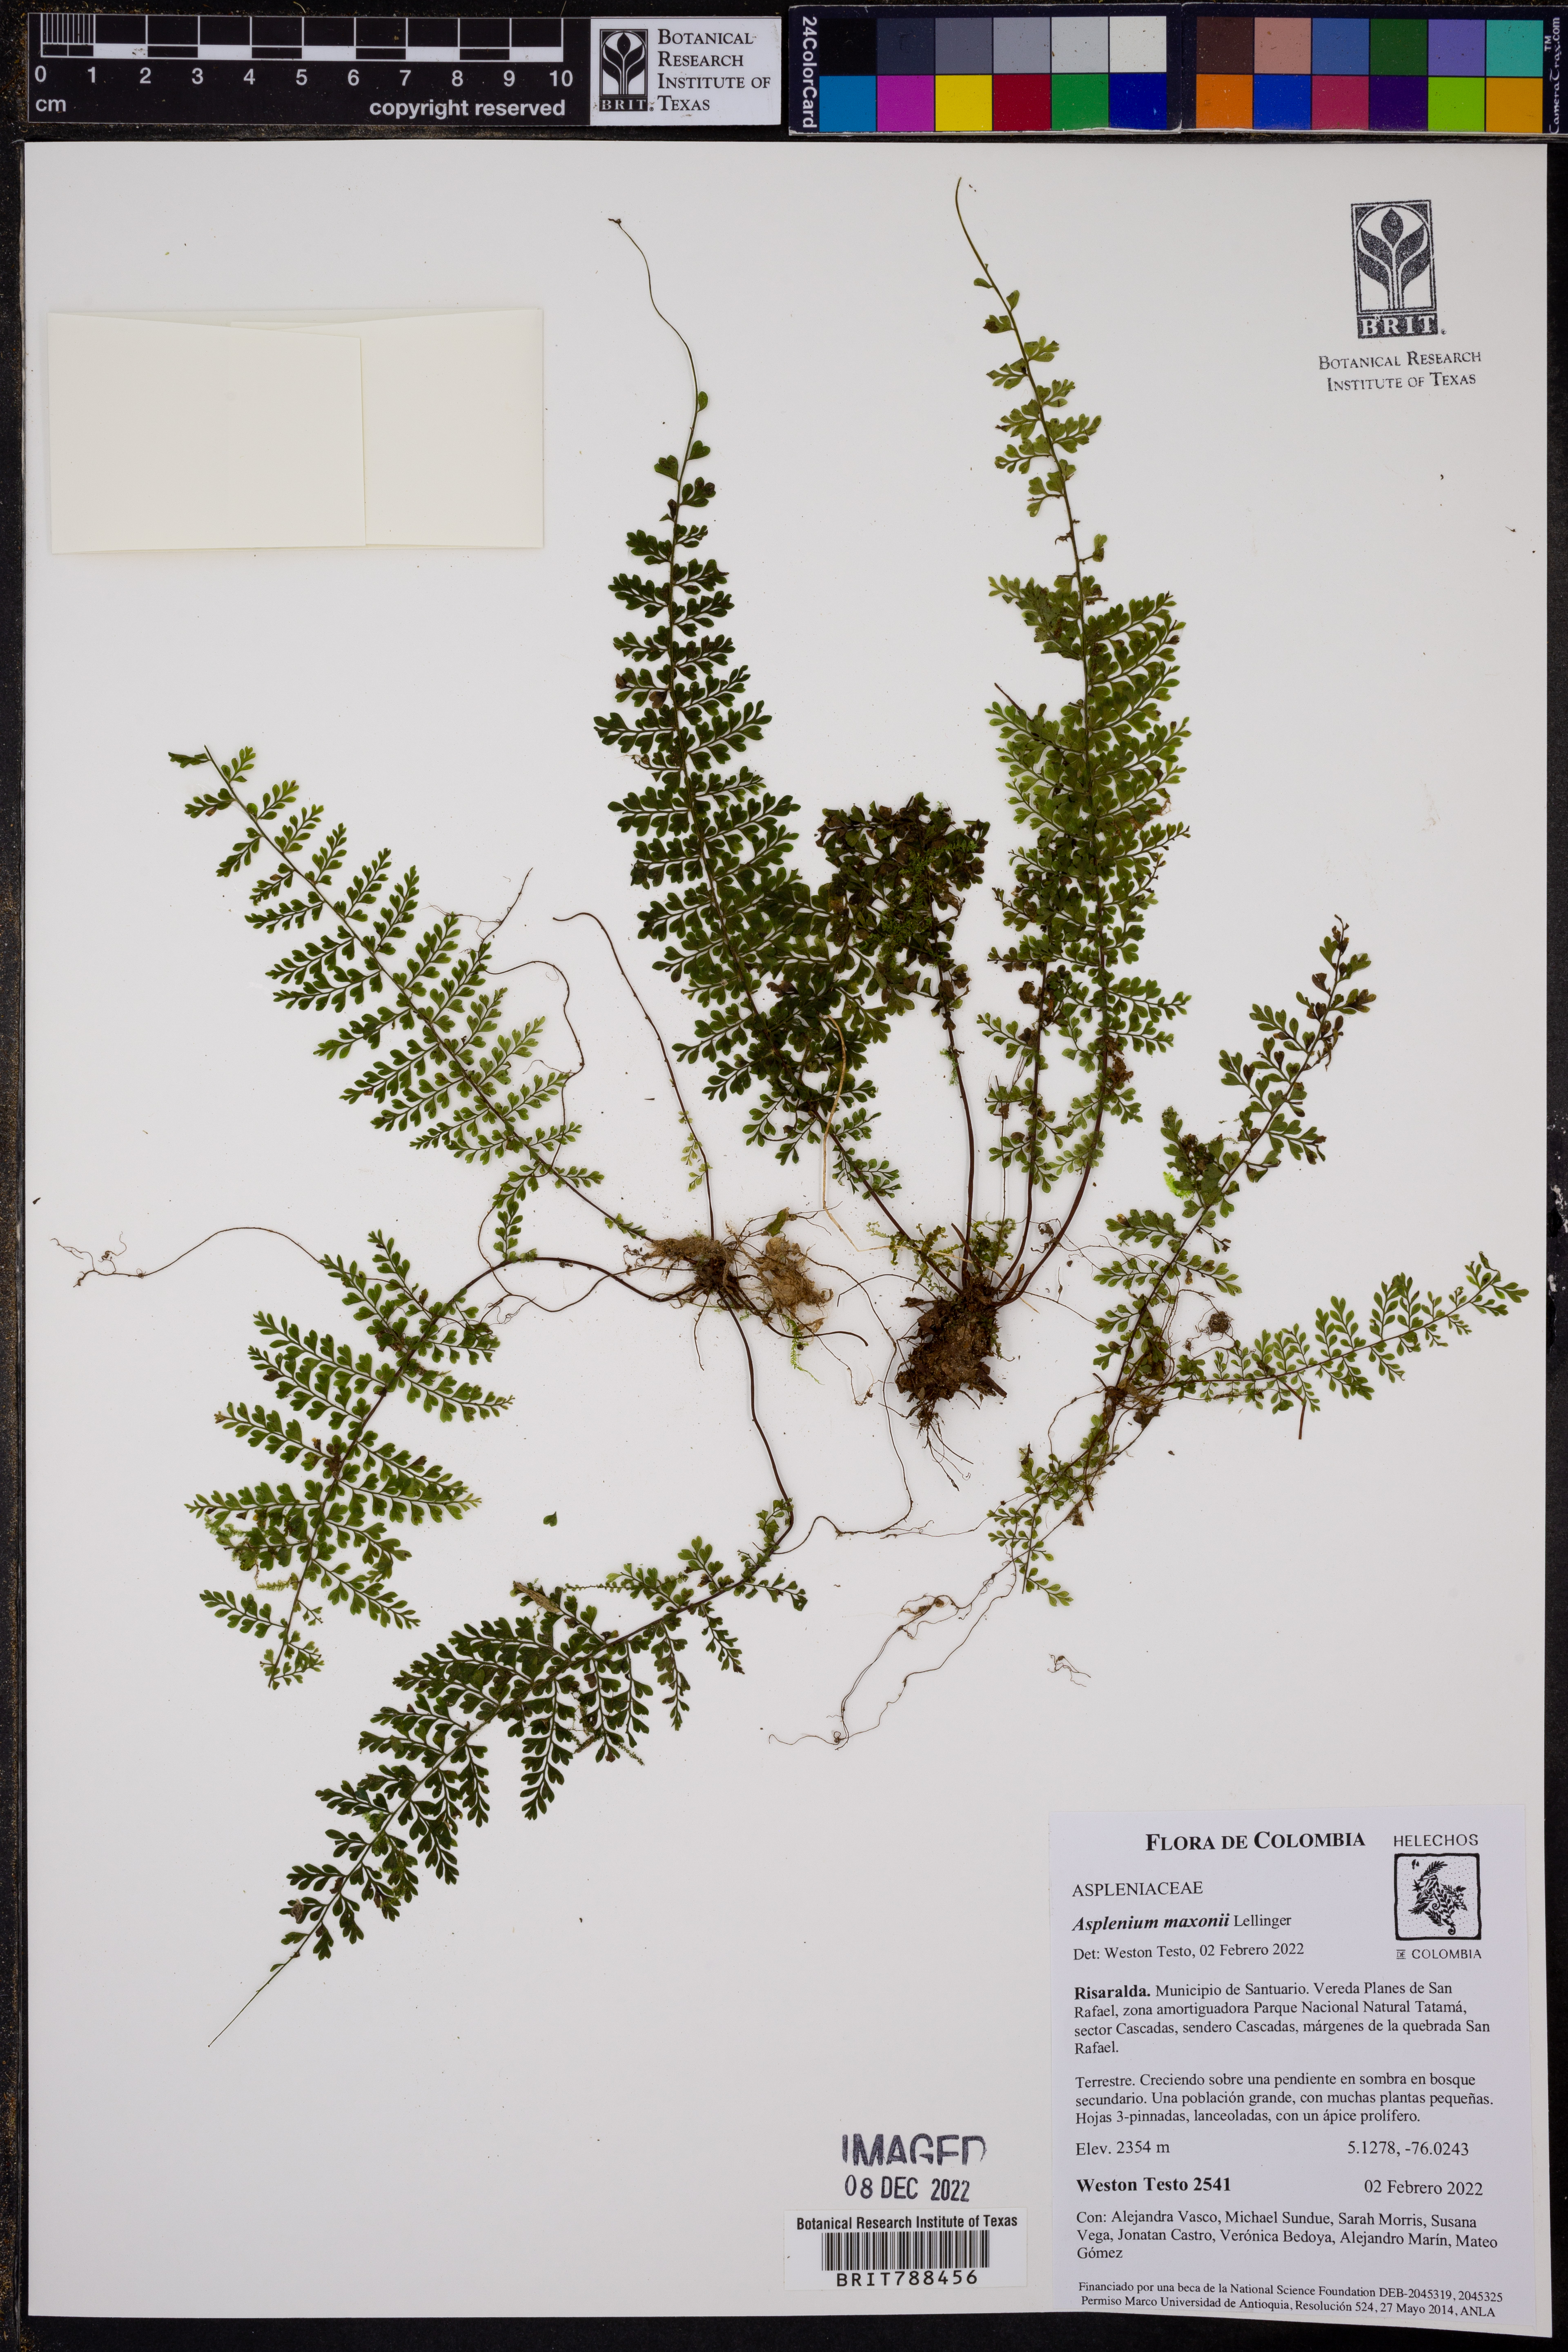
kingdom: Plantae
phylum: Tracheophyta
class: Polypodiopsida
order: Polypodiales
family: Aspleniaceae
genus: Asplenium
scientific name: Asplenium maxonii
